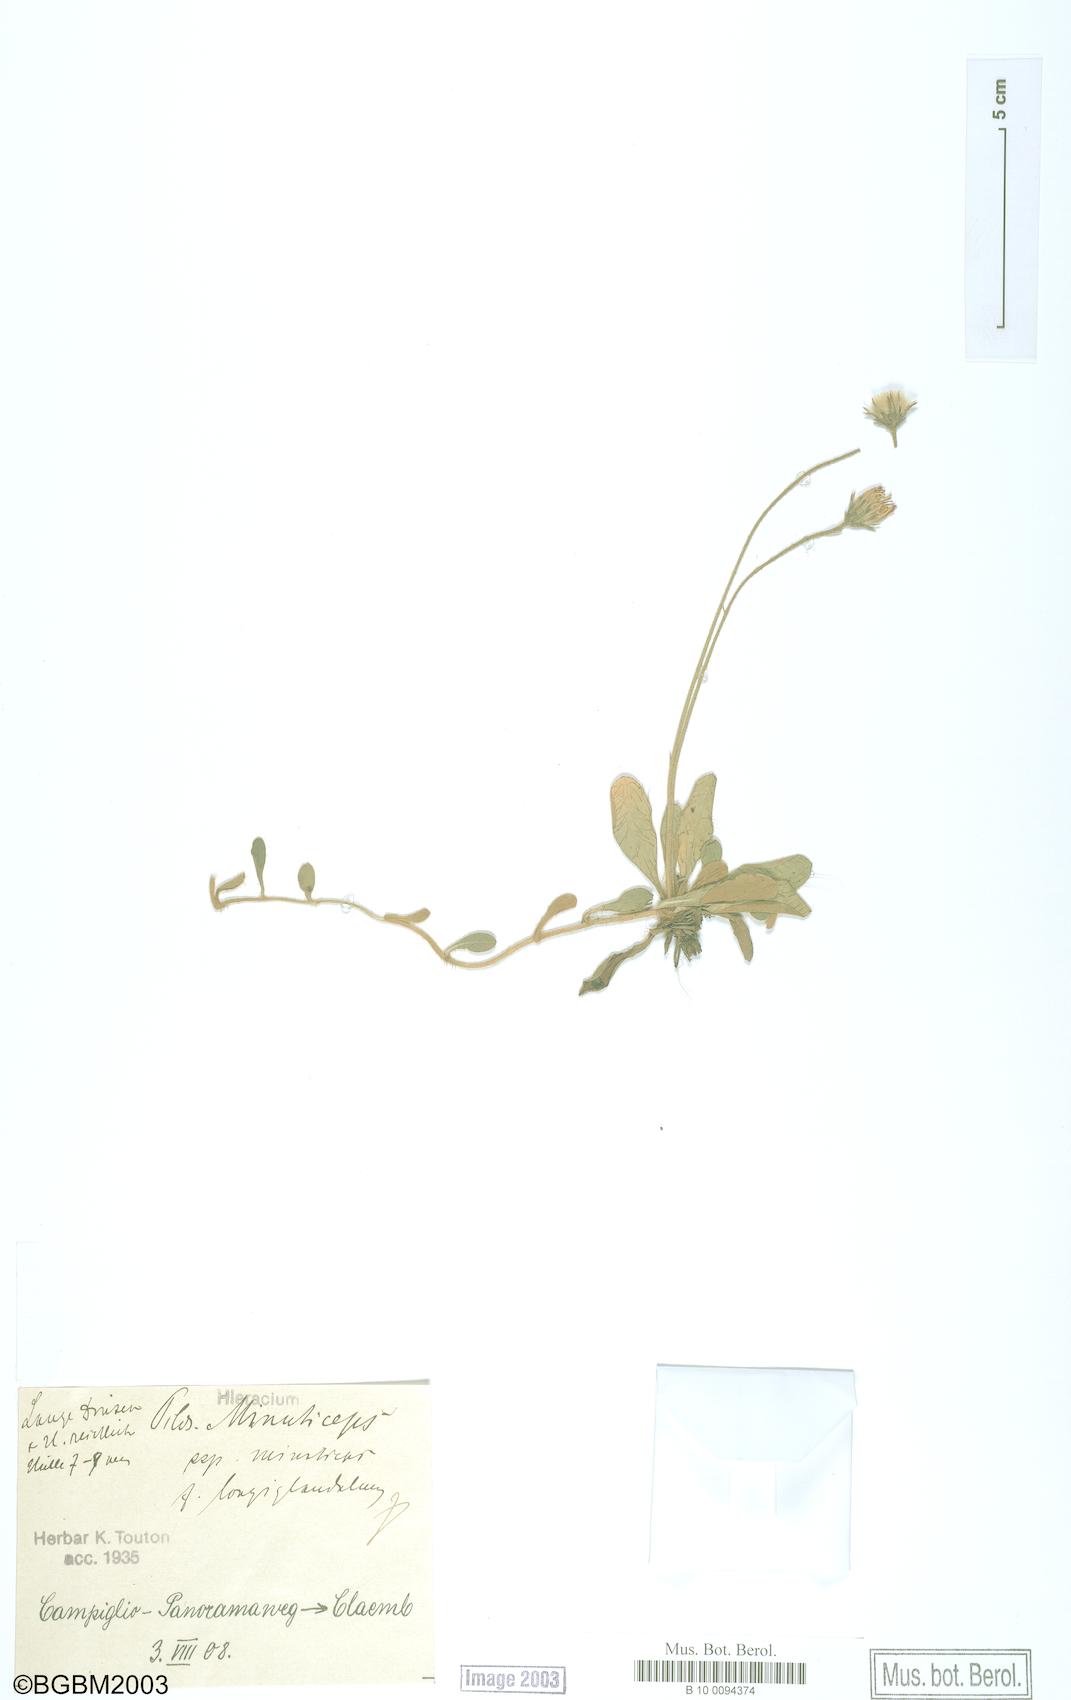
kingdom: Plantae
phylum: Tracheophyta
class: Magnoliopsida
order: Asterales
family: Asteraceae
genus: Pilosella
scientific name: Pilosella officinarum
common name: Mouse-ear hawkweed
